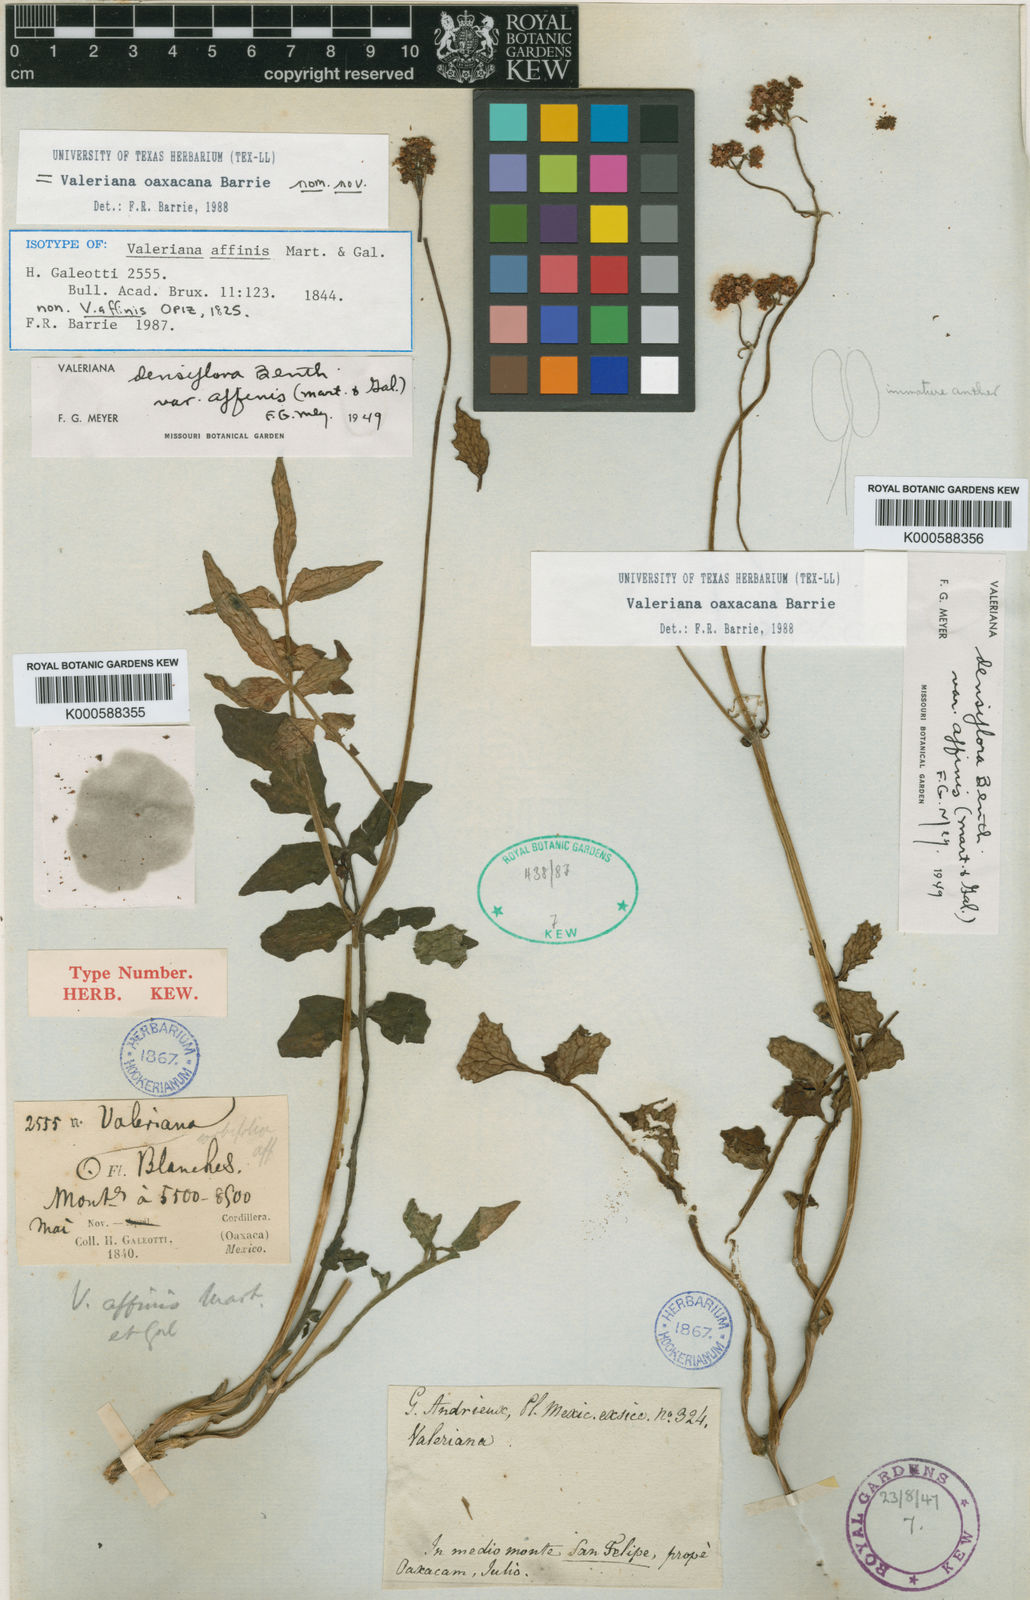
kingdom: Plantae
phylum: Tracheophyta
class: Magnoliopsida
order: Dipsacales
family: Caprifoliaceae
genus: Valeriana
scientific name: Valeriana oaxacana
